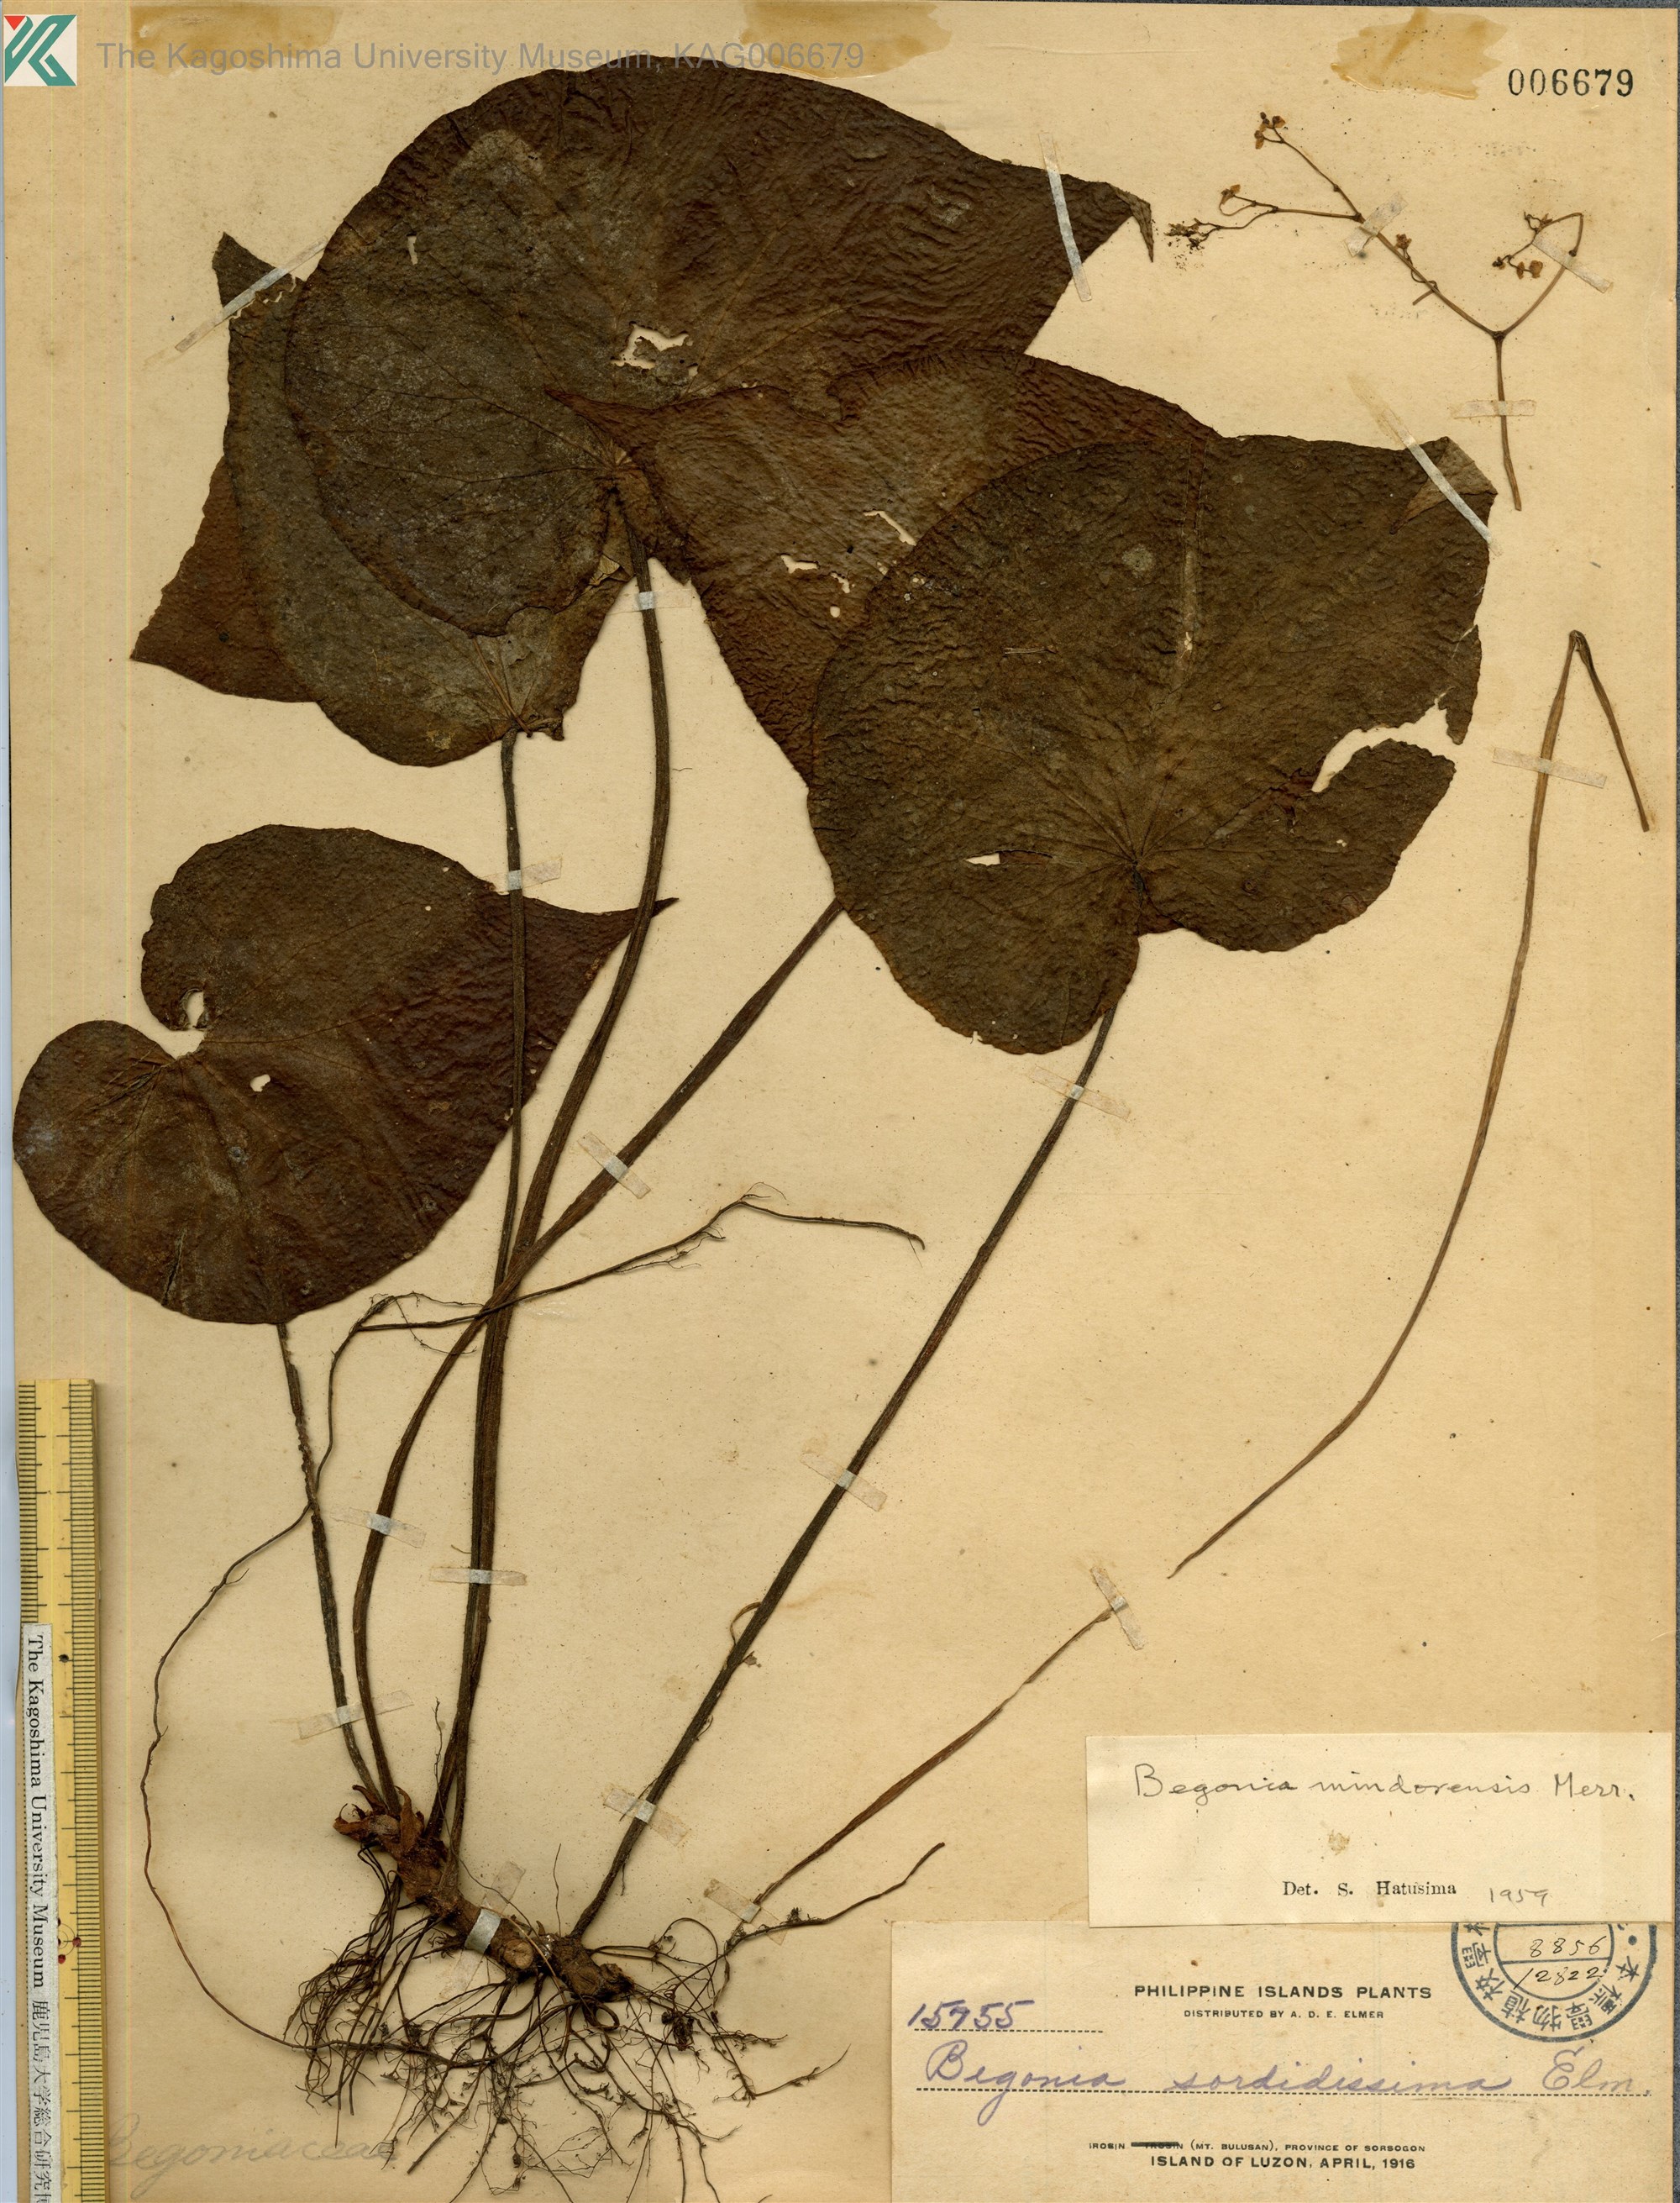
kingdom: Plantae
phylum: Tracheophyta
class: Magnoliopsida
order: Cucurbitales
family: Begoniaceae
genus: Begonia
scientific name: Begonia mindorensis
